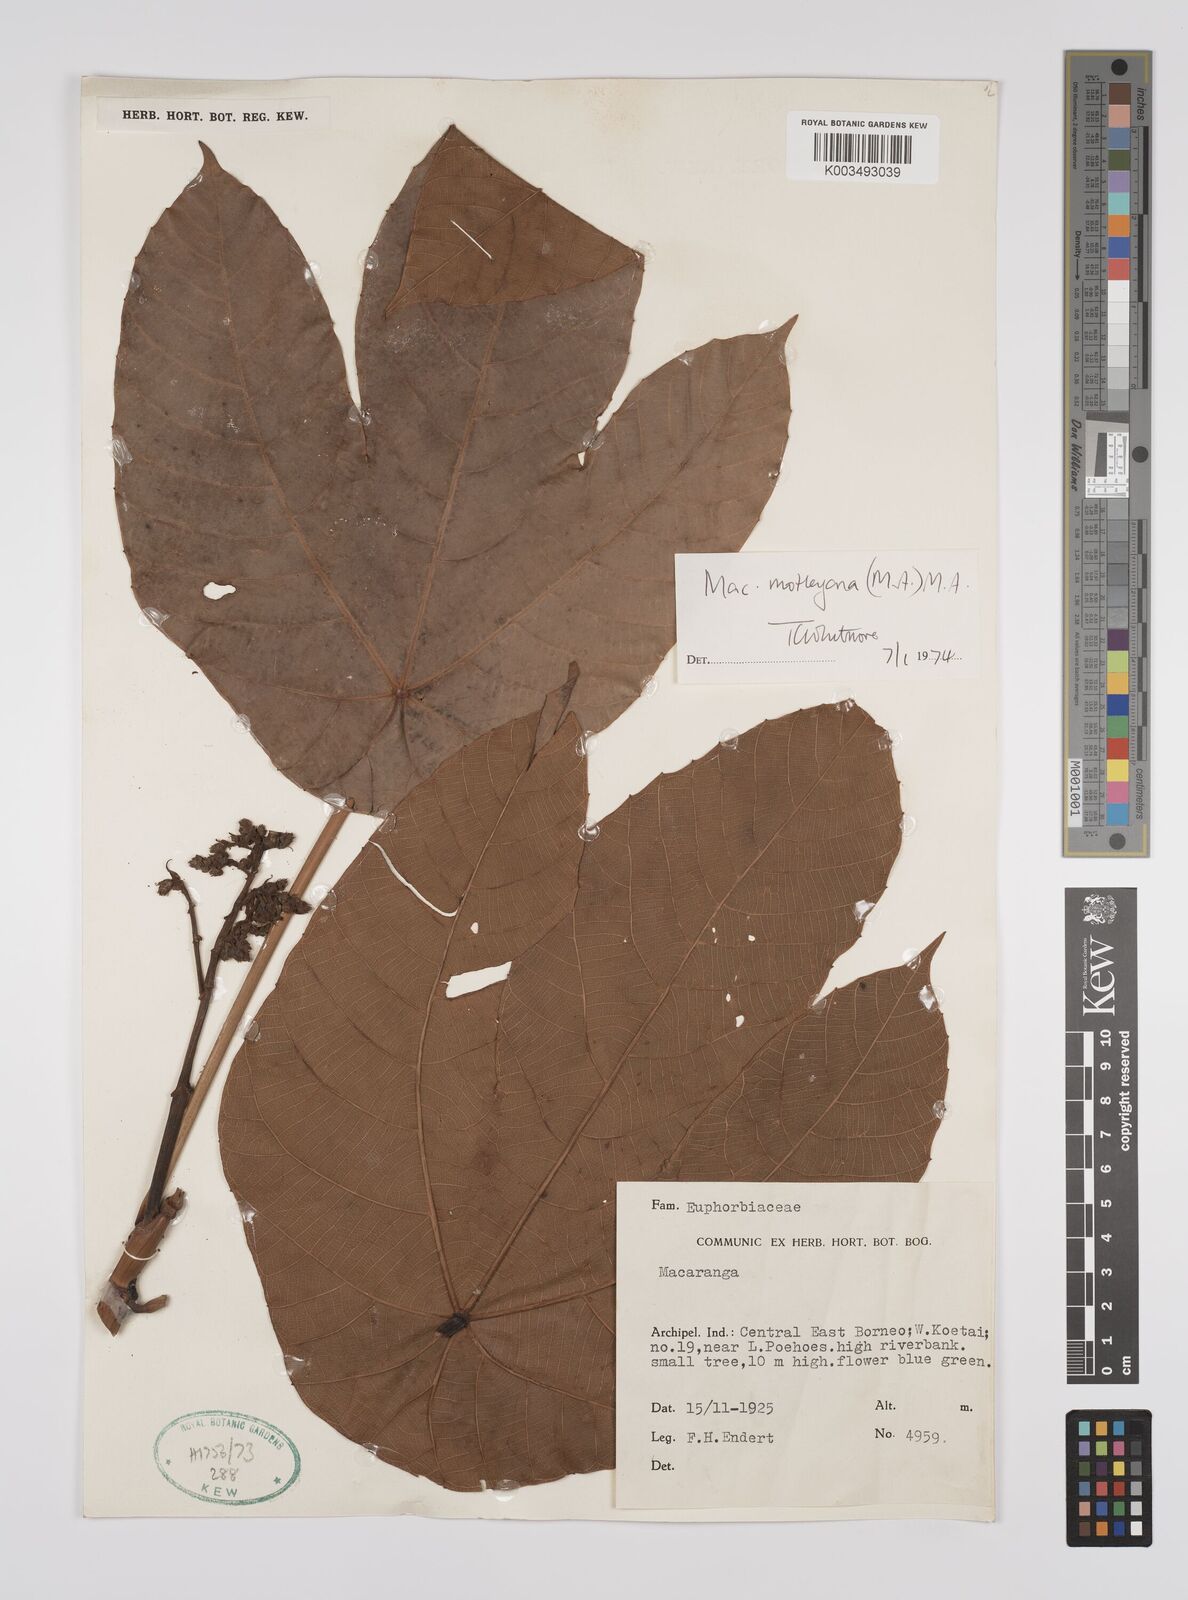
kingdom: Plantae
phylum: Tracheophyta
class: Magnoliopsida
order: Malpighiales
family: Euphorbiaceae
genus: Macaranga
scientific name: Macaranga motleyana
